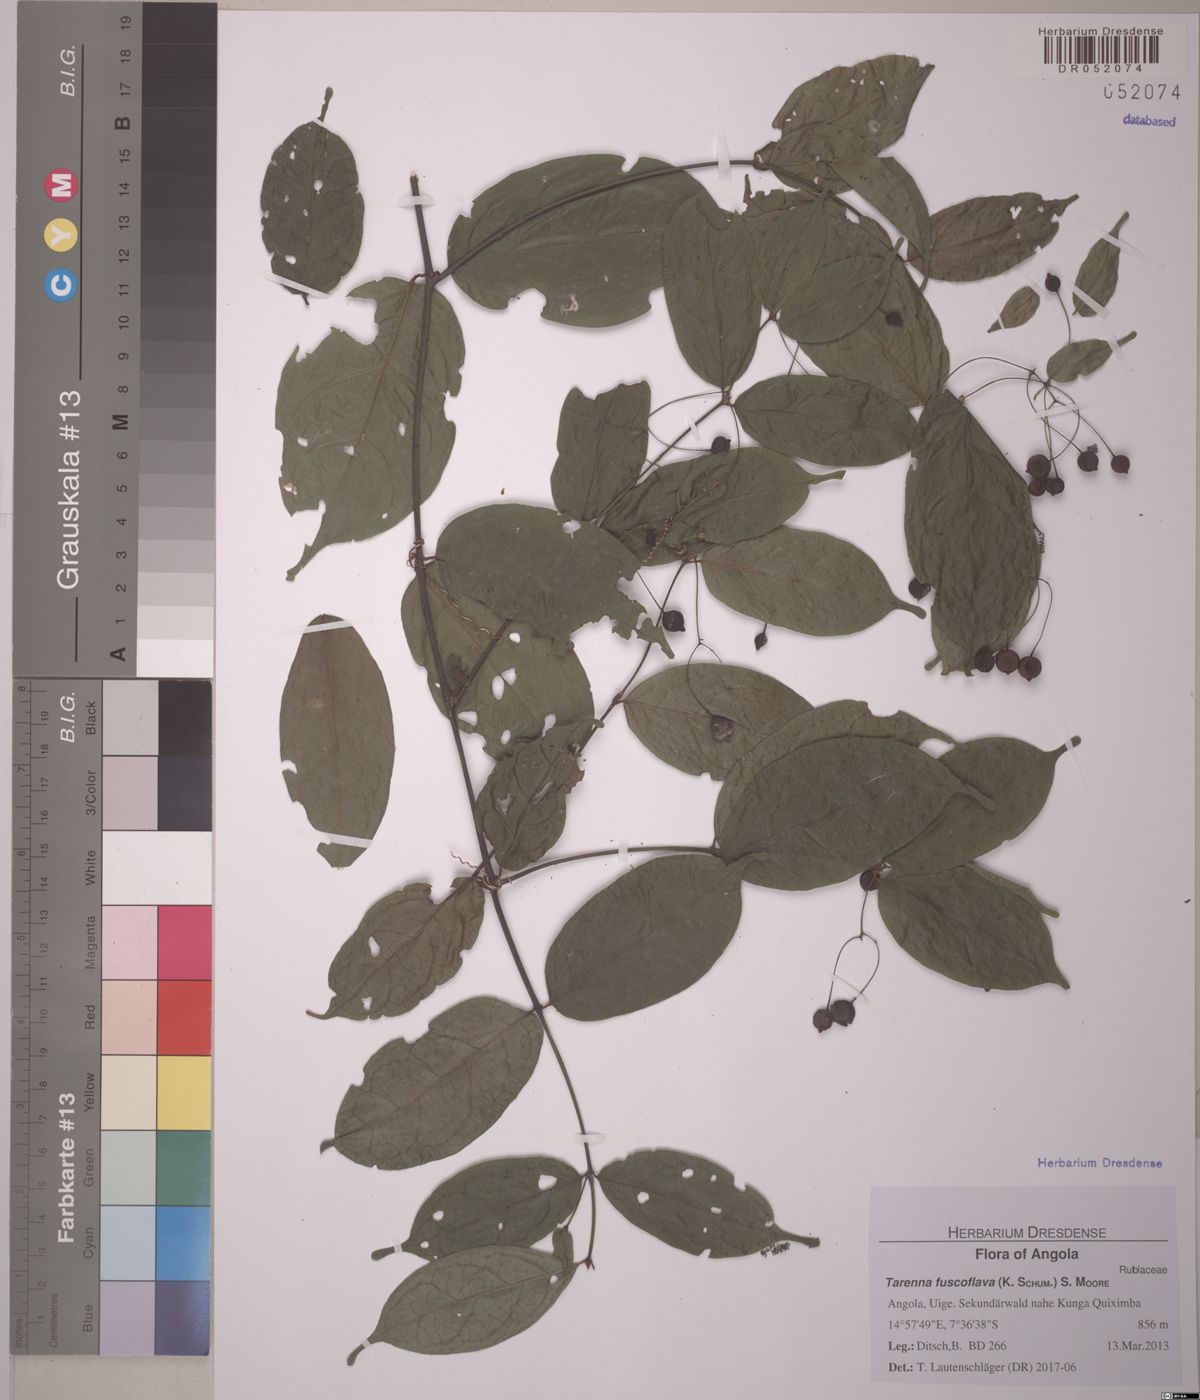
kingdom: Plantae
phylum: Tracheophyta
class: Magnoliopsida
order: Gentianales
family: Rubiaceae
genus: Tarenna
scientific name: Tarenna fuscoflava
